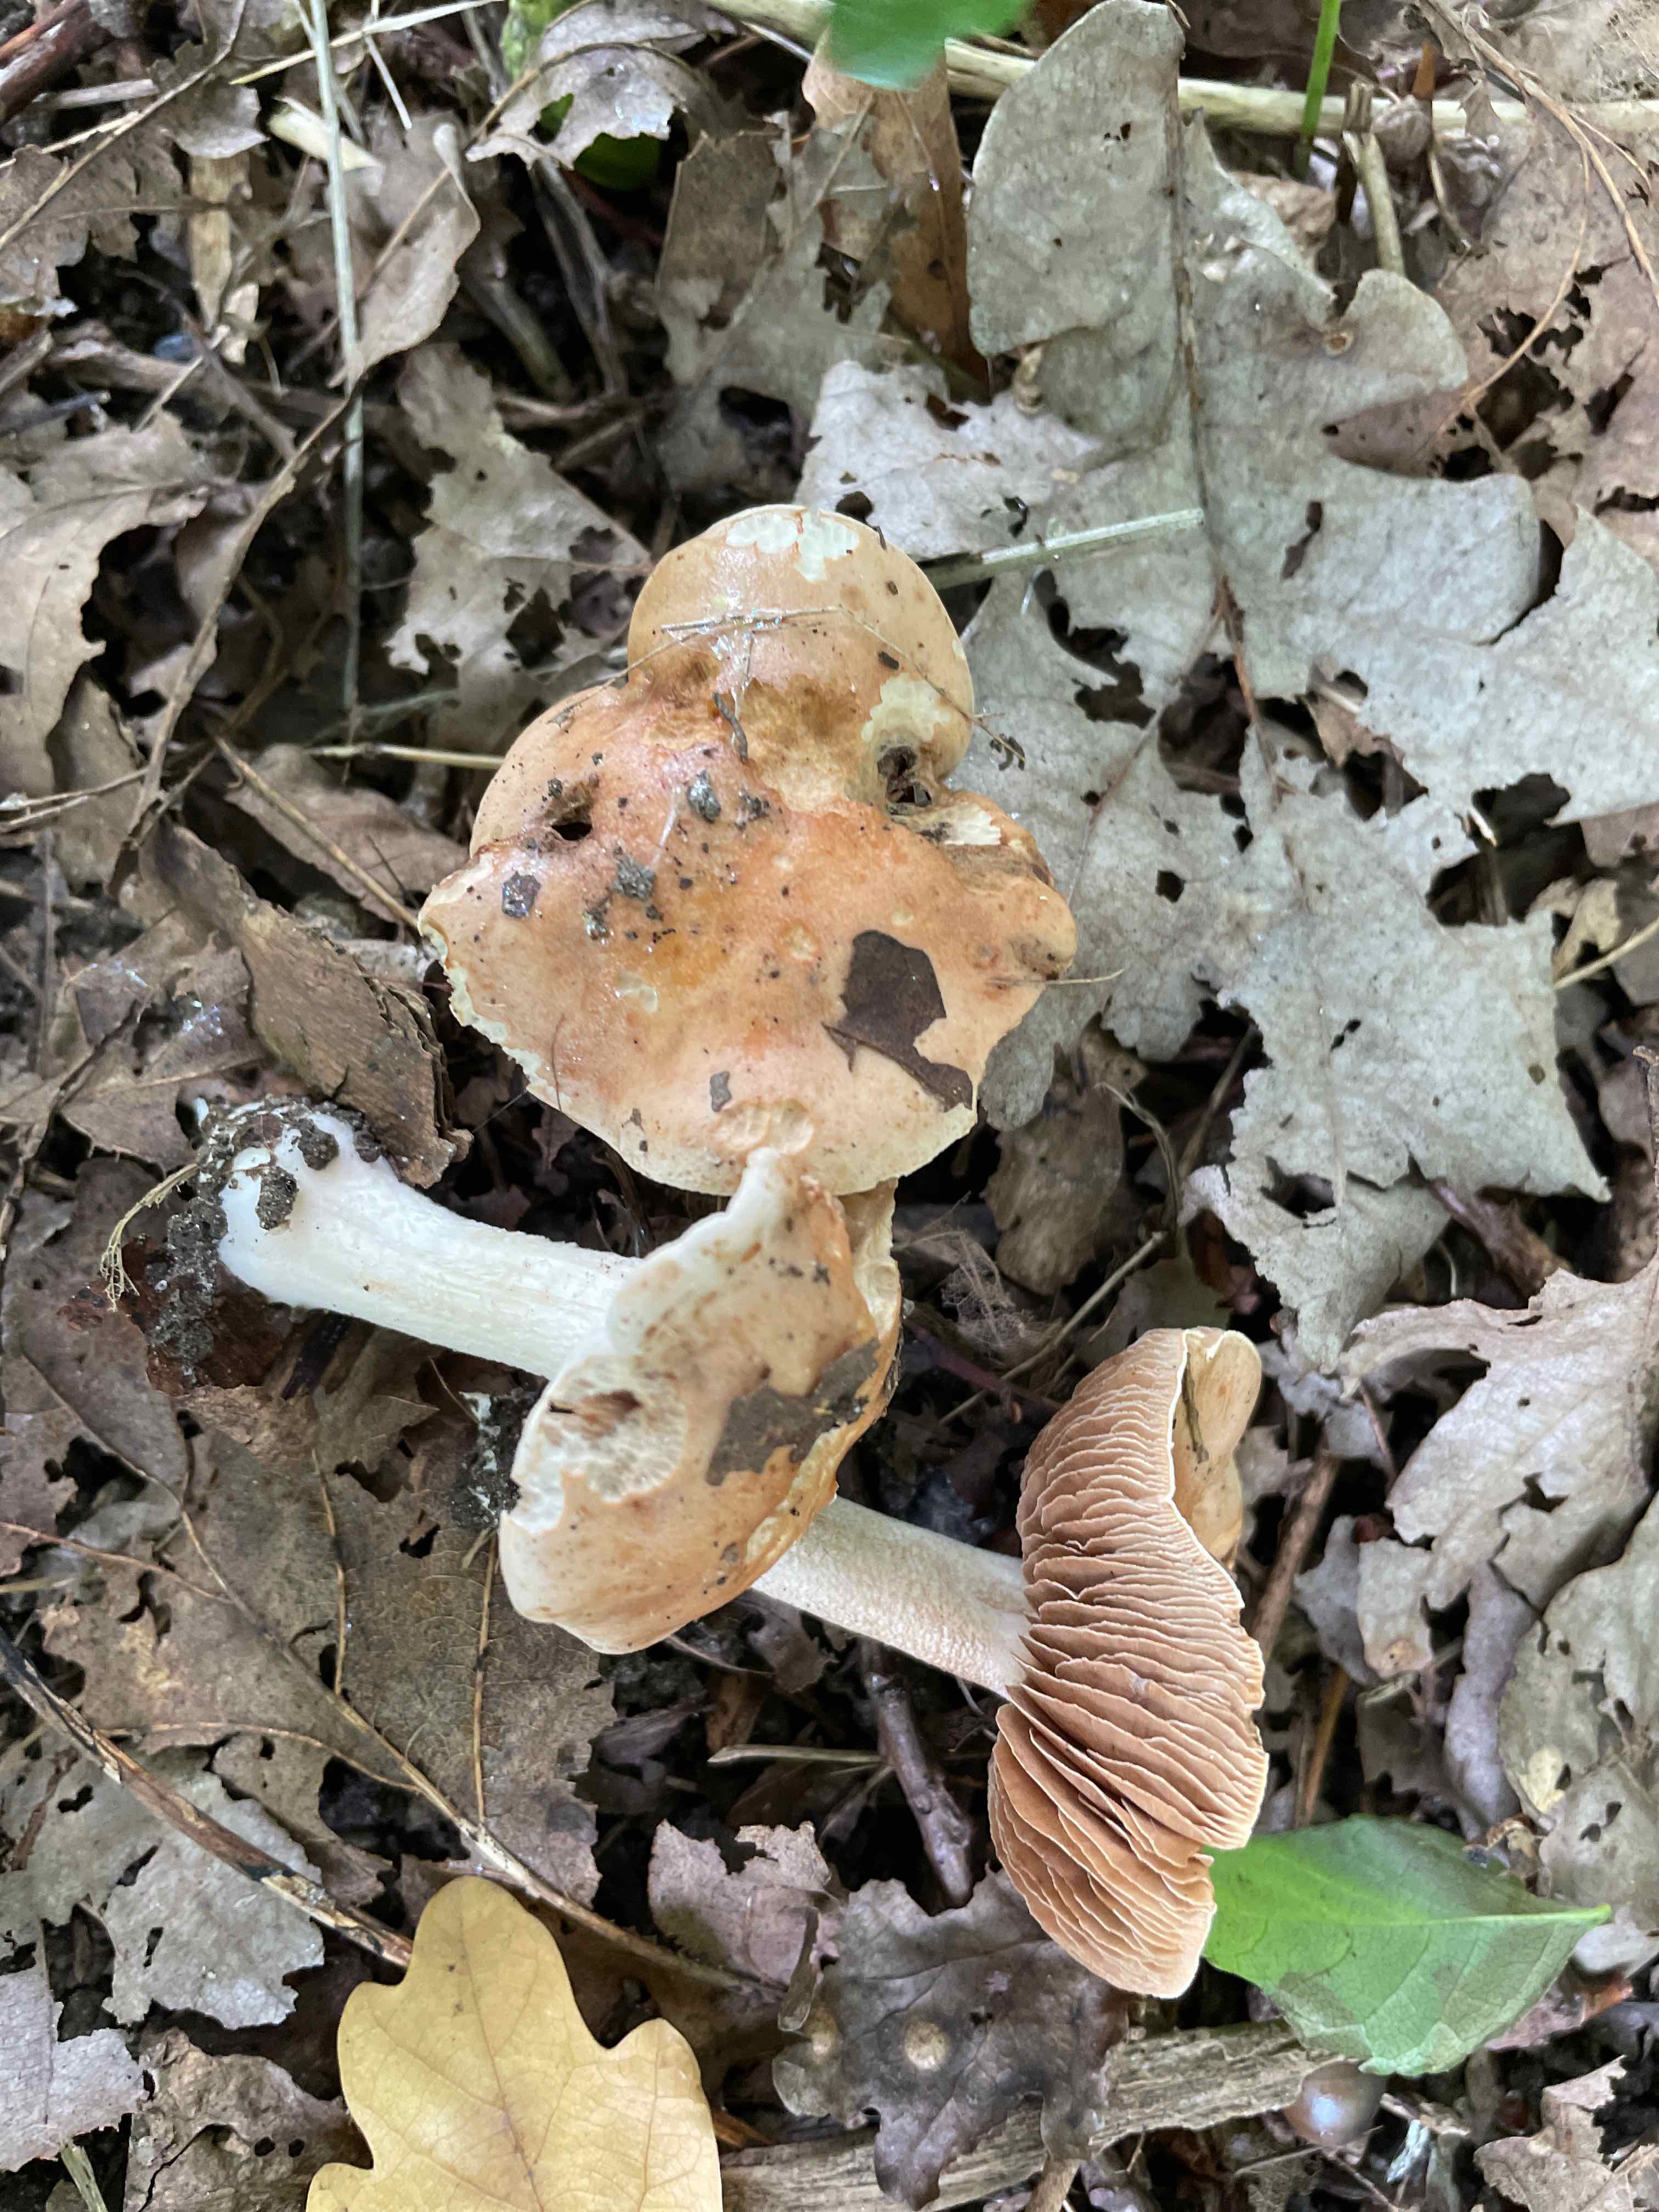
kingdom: Fungi
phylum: Basidiomycota
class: Agaricomycetes
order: Agaricales
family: Hymenogastraceae
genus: Hebeloma
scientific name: Hebeloma sinapizans
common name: ræddike-tåreblad
